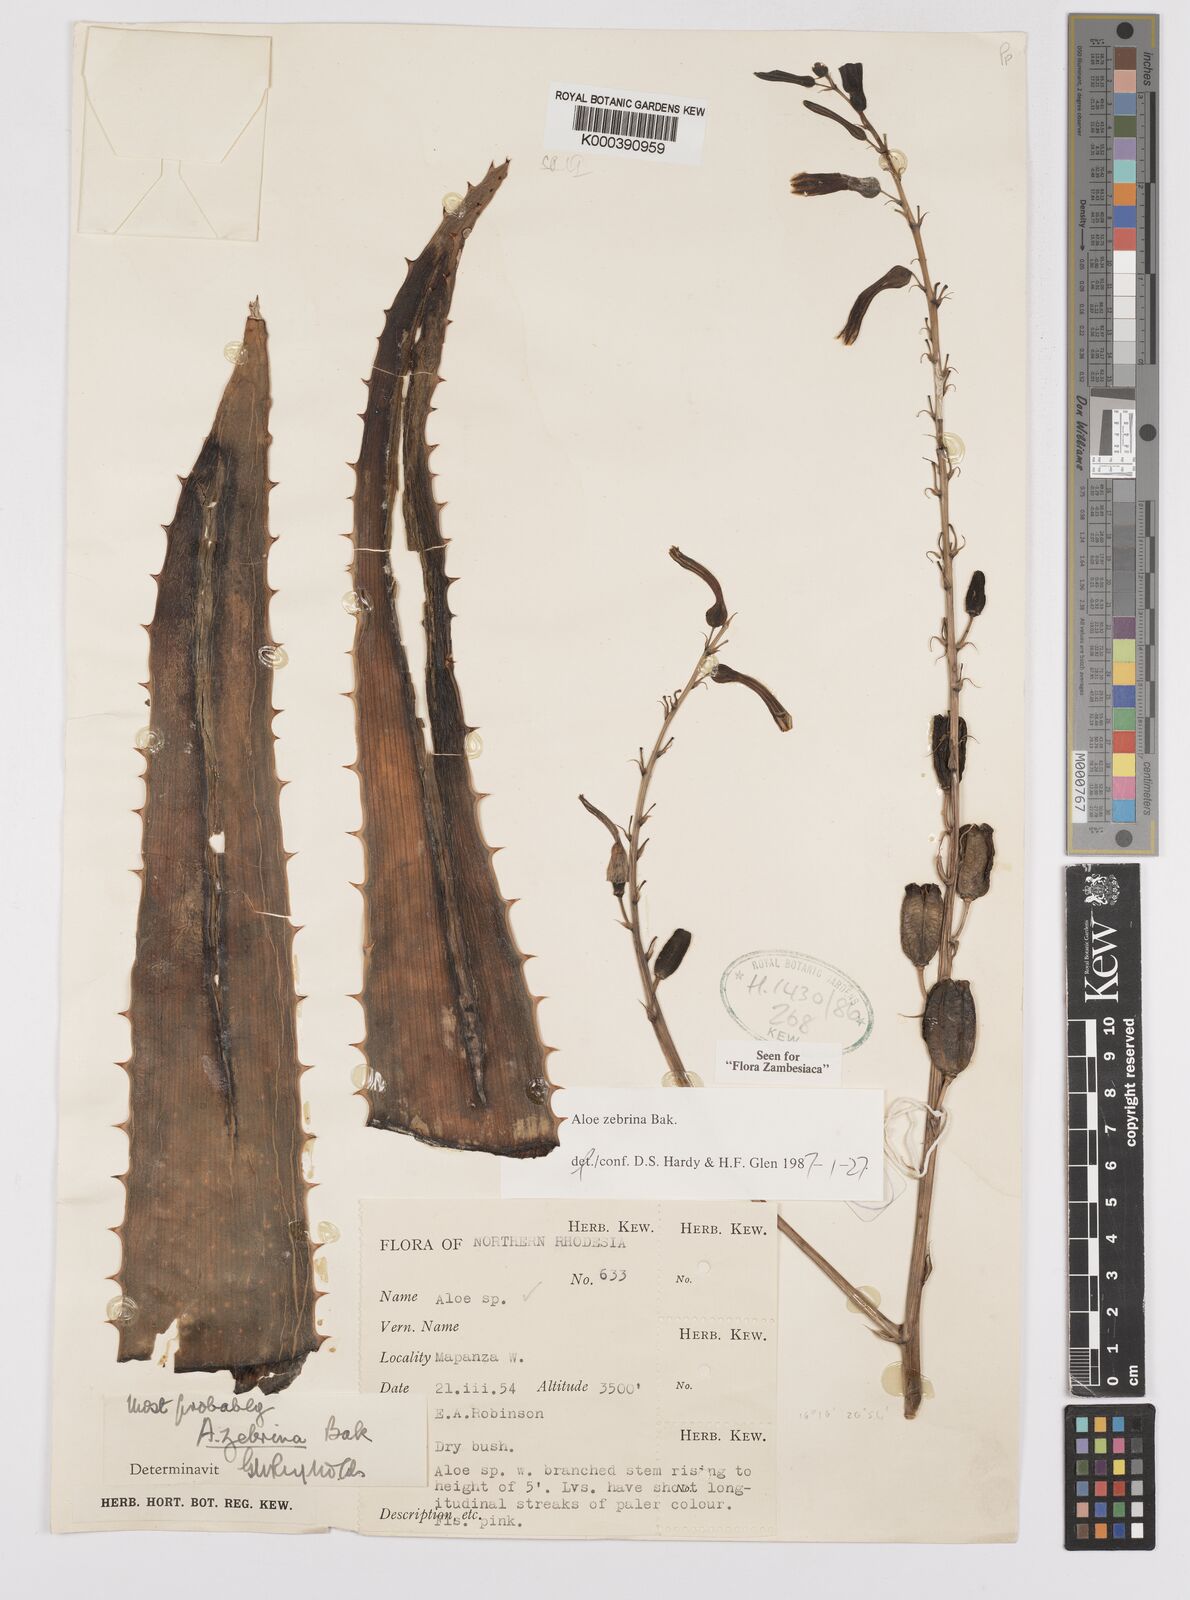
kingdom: Plantae
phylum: Tracheophyta
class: Liliopsida
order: Asparagales
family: Asphodelaceae
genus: Aloe
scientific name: Aloe zebrina
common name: Zebra-leaf aloe
